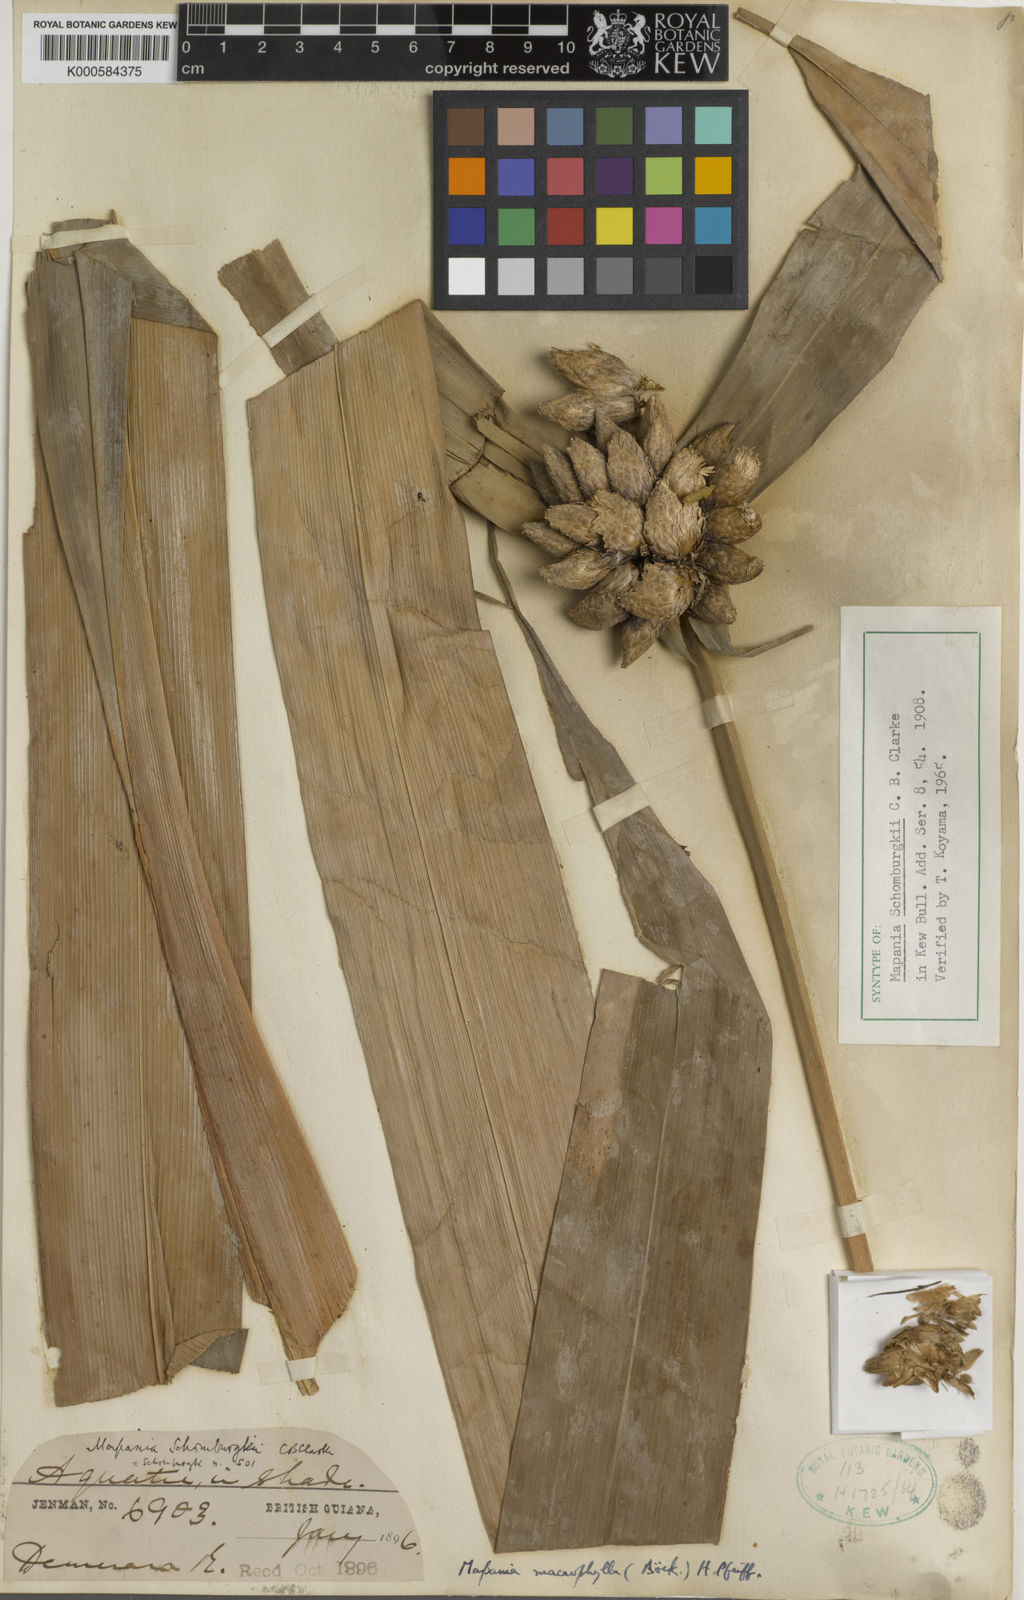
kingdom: Plantae
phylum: Tracheophyta
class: Liliopsida
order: Poales
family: Cyperaceae
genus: Mapania
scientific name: Mapania macrophylla
